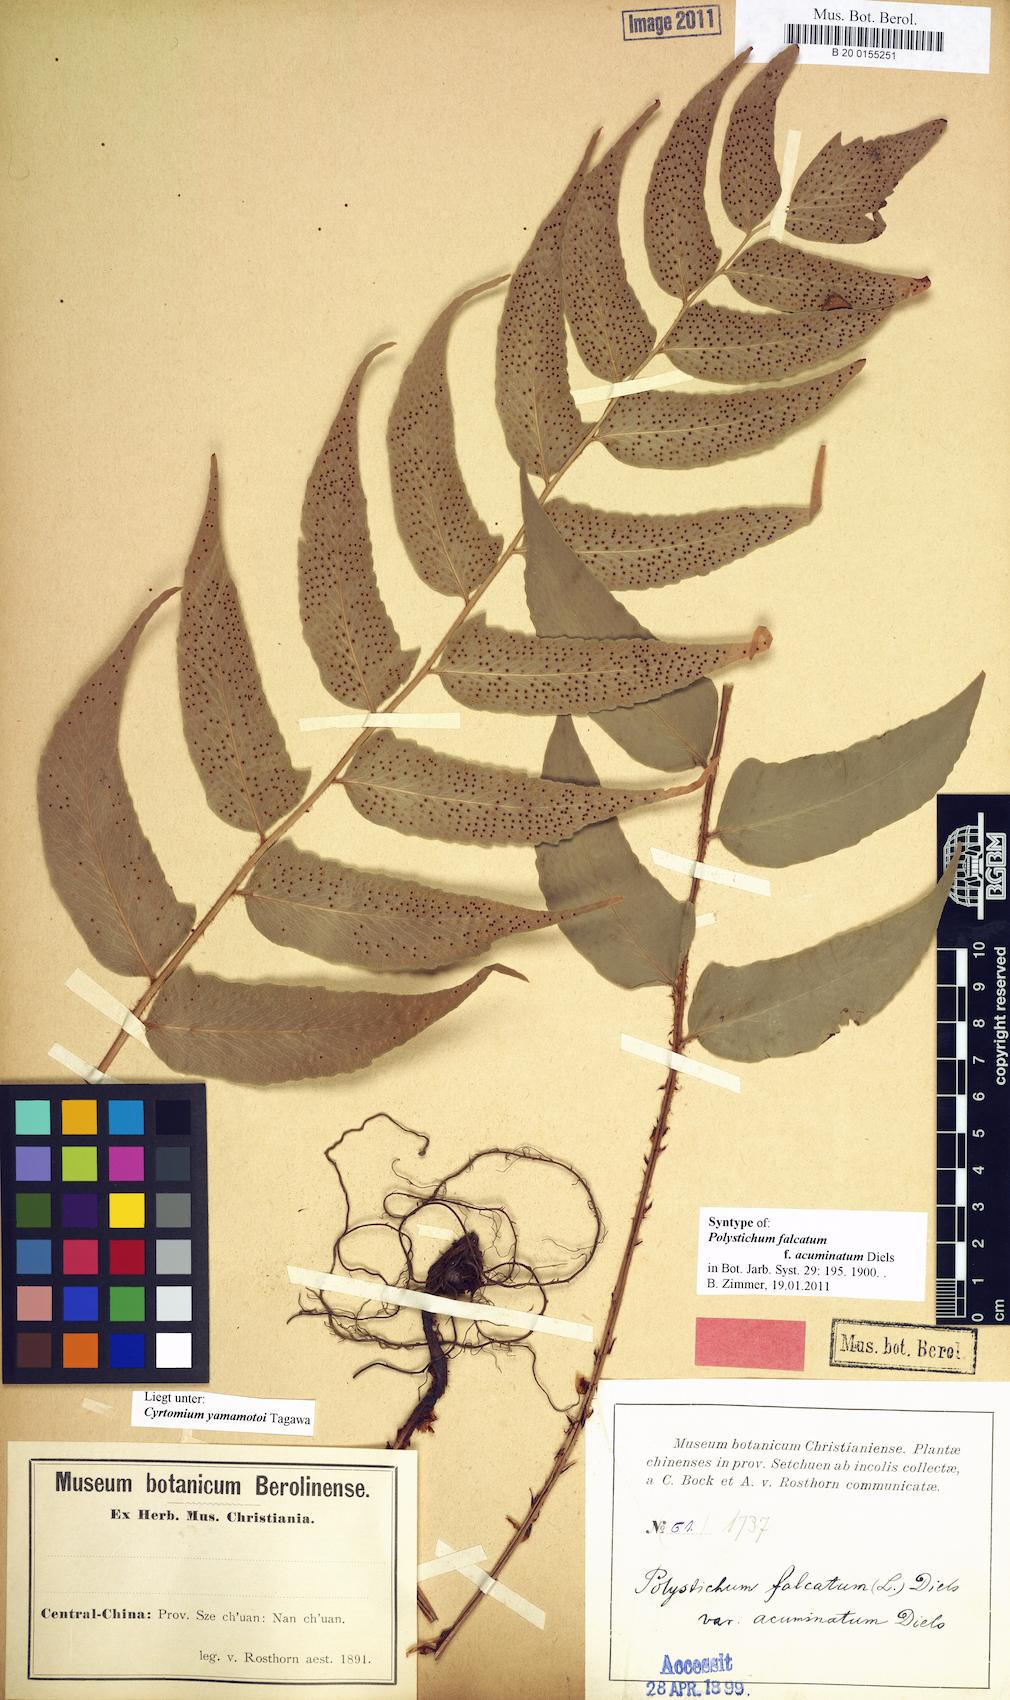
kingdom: Plantae
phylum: Tracheophyta
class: Polypodiopsida
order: Polypodiales
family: Dryopteridaceae
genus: Cyrtomium
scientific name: Cyrtomium yamamotoi
